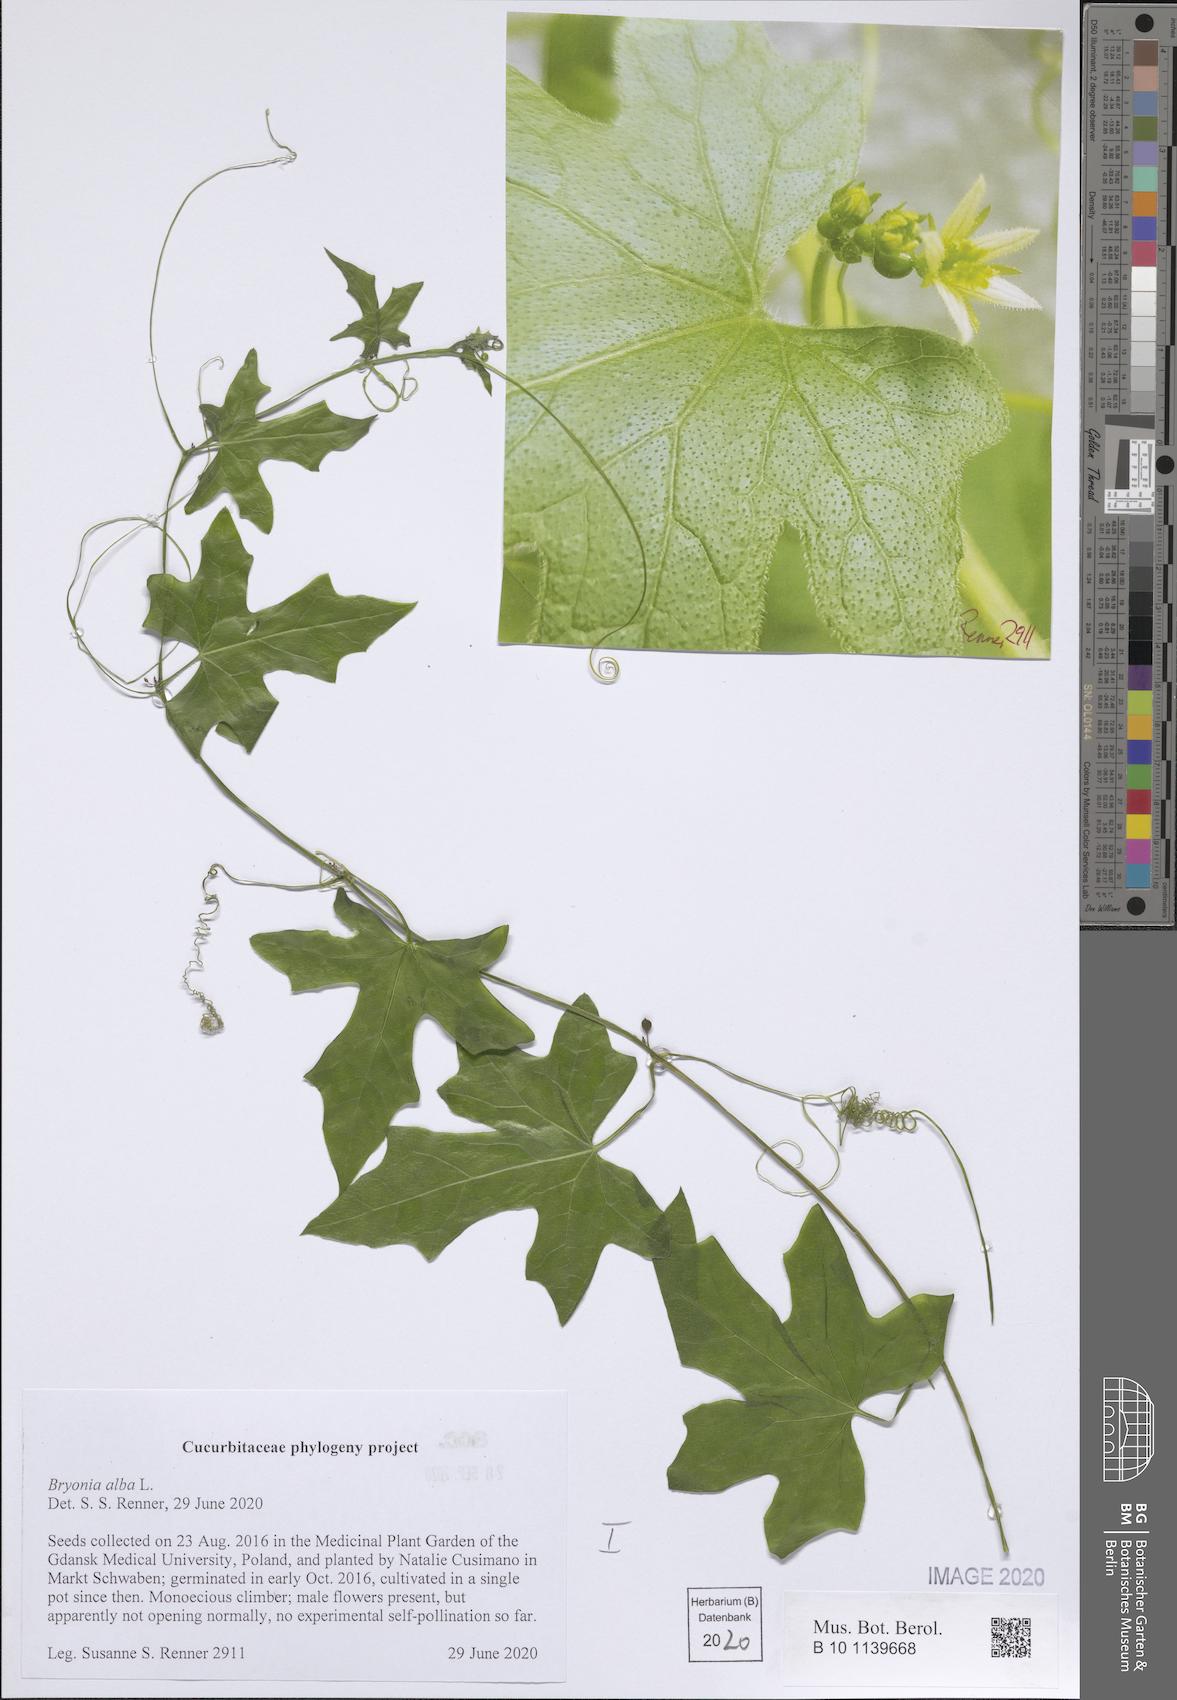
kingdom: Plantae
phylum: Tracheophyta
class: Magnoliopsida
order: Cucurbitales
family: Cucurbitaceae
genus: Bryonia
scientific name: Bryonia alba
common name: White bryony
